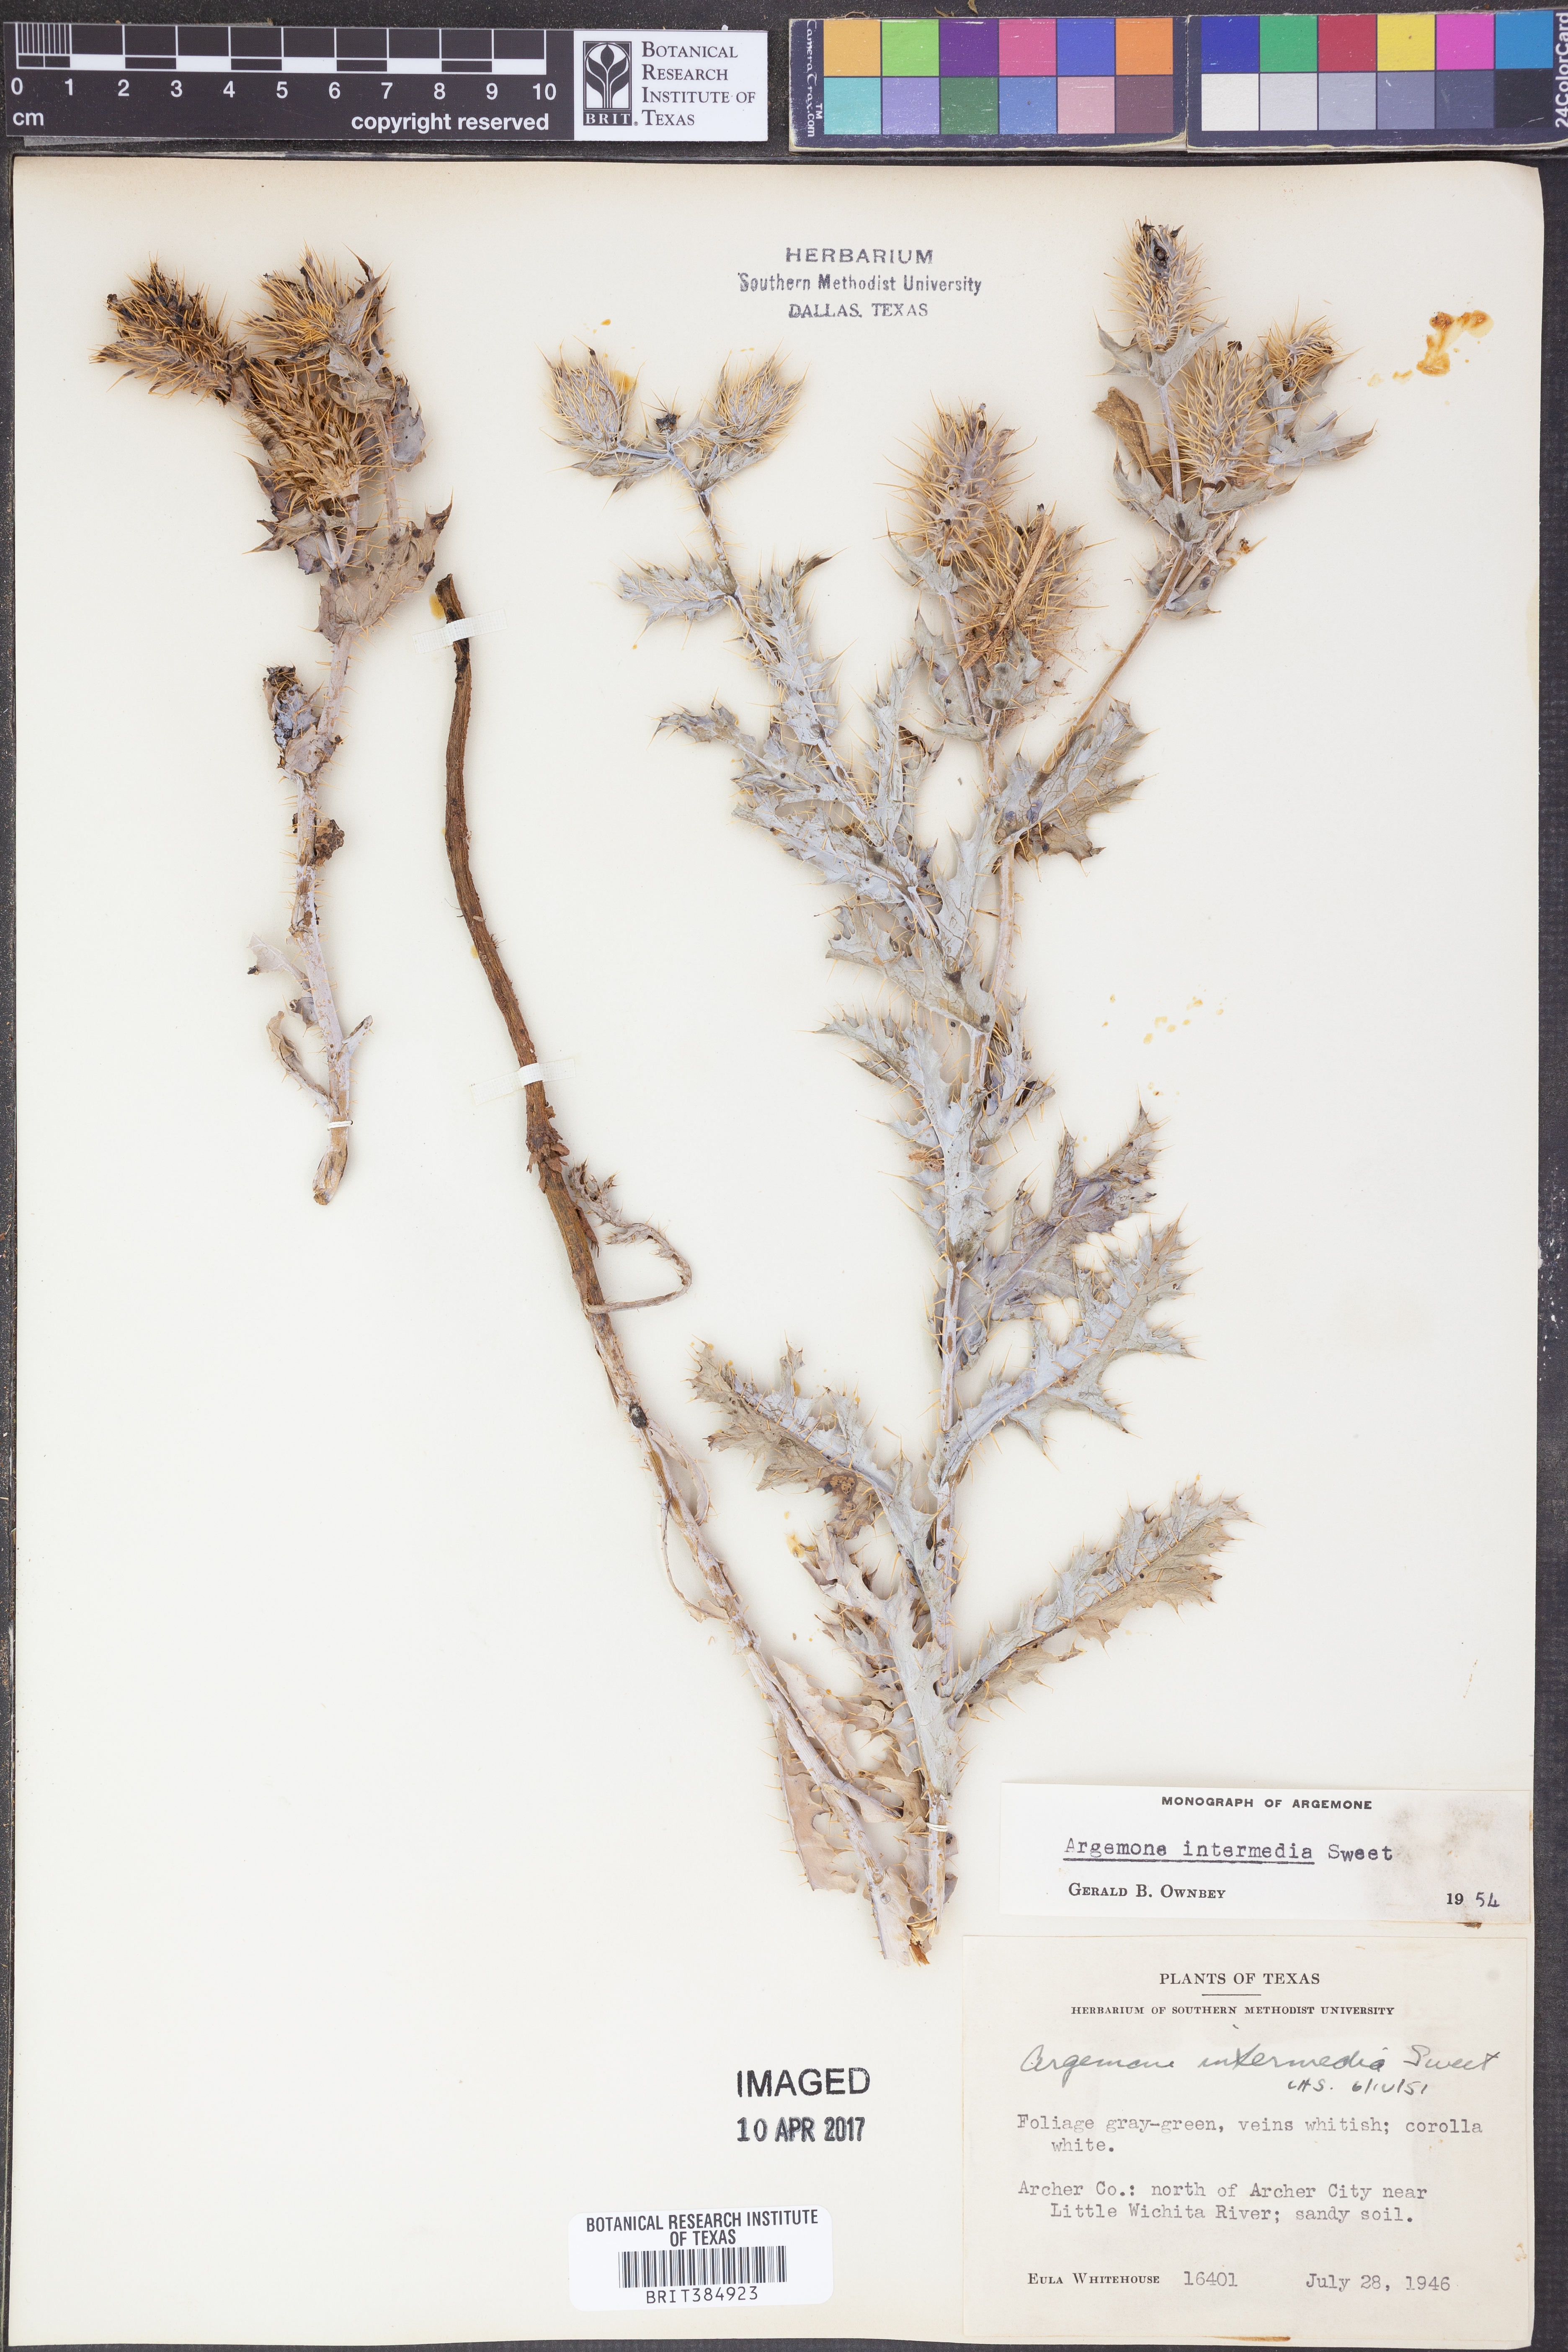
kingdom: Plantae
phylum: Tracheophyta
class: Magnoliopsida
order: Ranunculales
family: Papaveraceae
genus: Argemone
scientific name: Argemone intermedia
